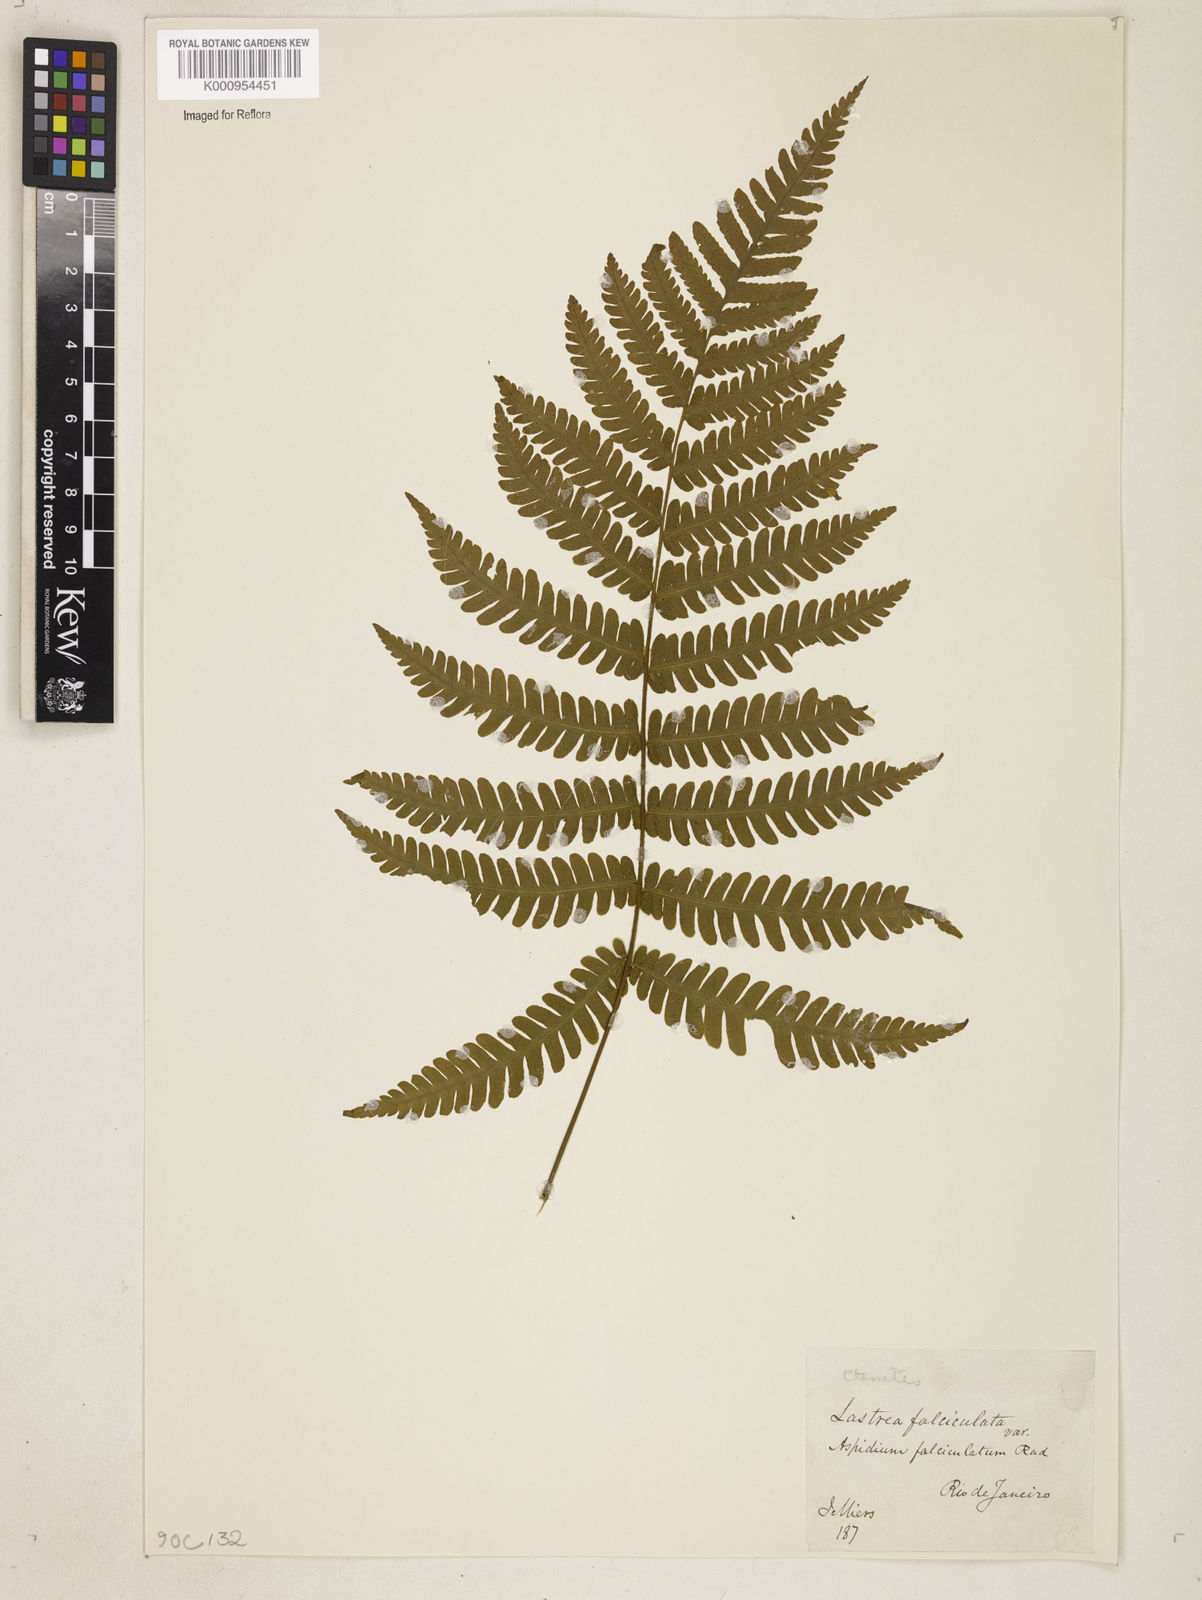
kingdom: Plantae
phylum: Tracheophyta
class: Polypodiopsida
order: Polypodiales
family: Dryopteridaceae
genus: Ctenitis
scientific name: Ctenitis falciculata
